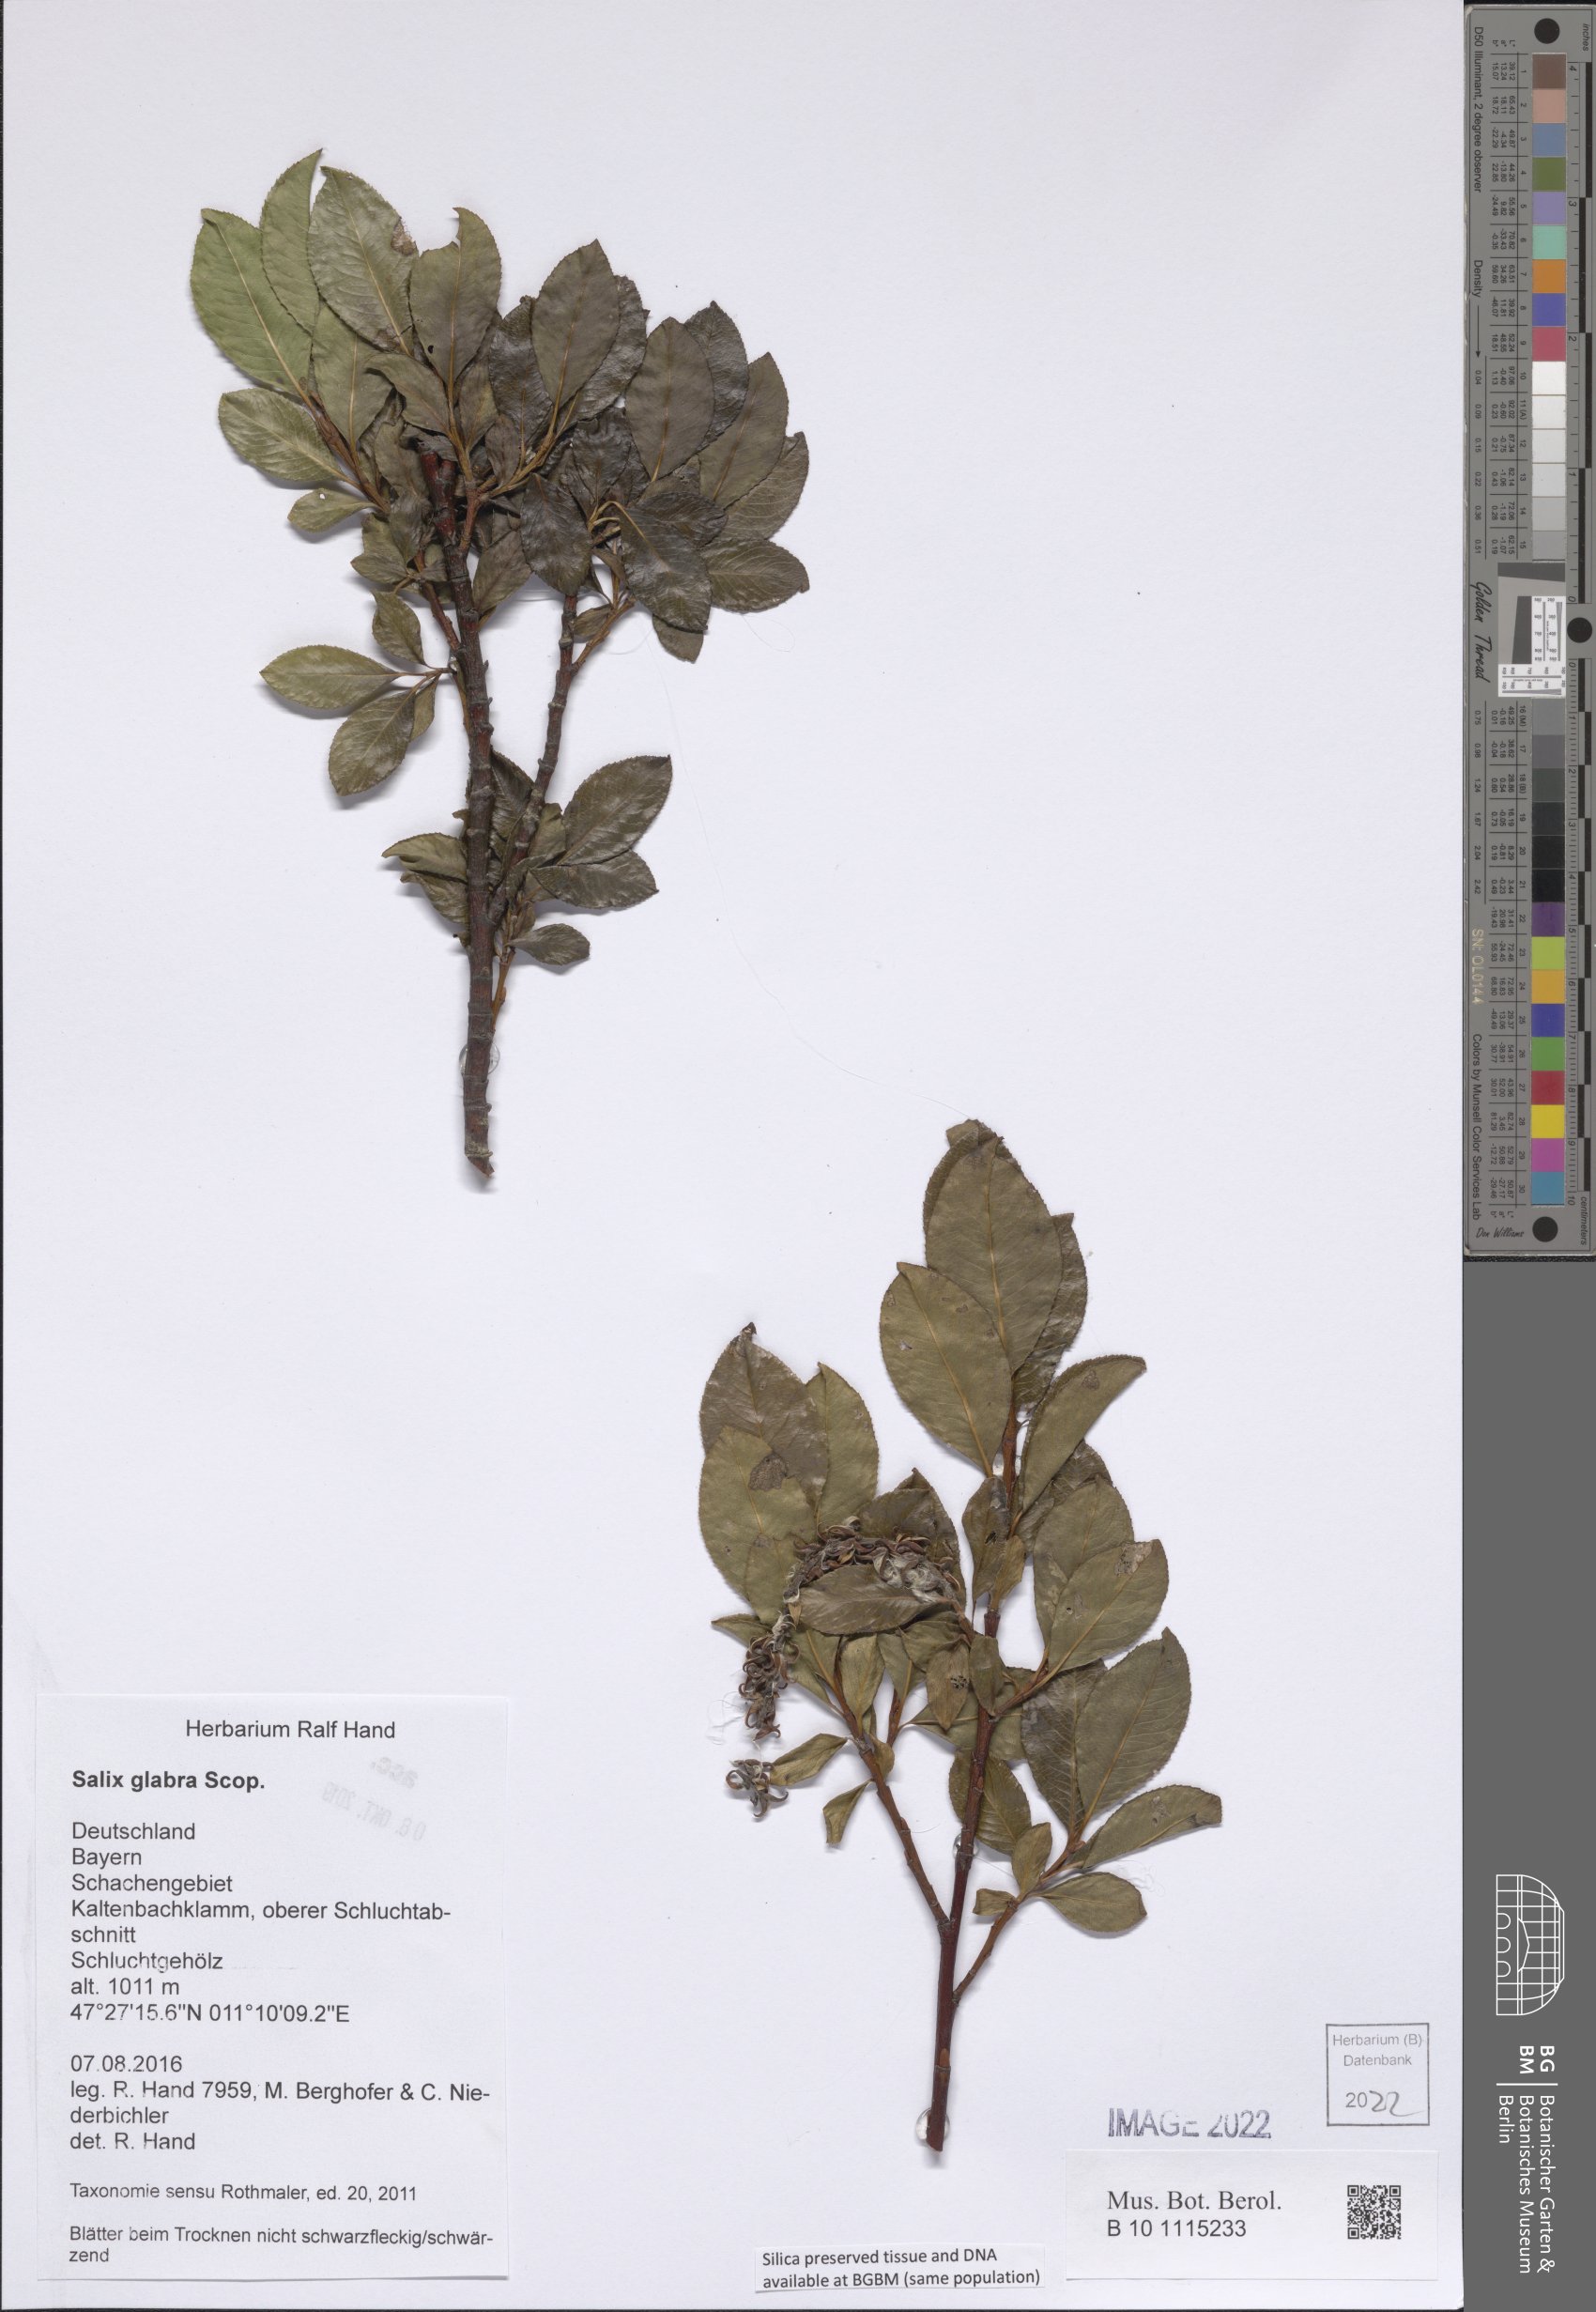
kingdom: Plantae
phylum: Tracheophyta
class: Magnoliopsida
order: Malpighiales
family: Salicaceae
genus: Salix
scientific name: Salix glabra
